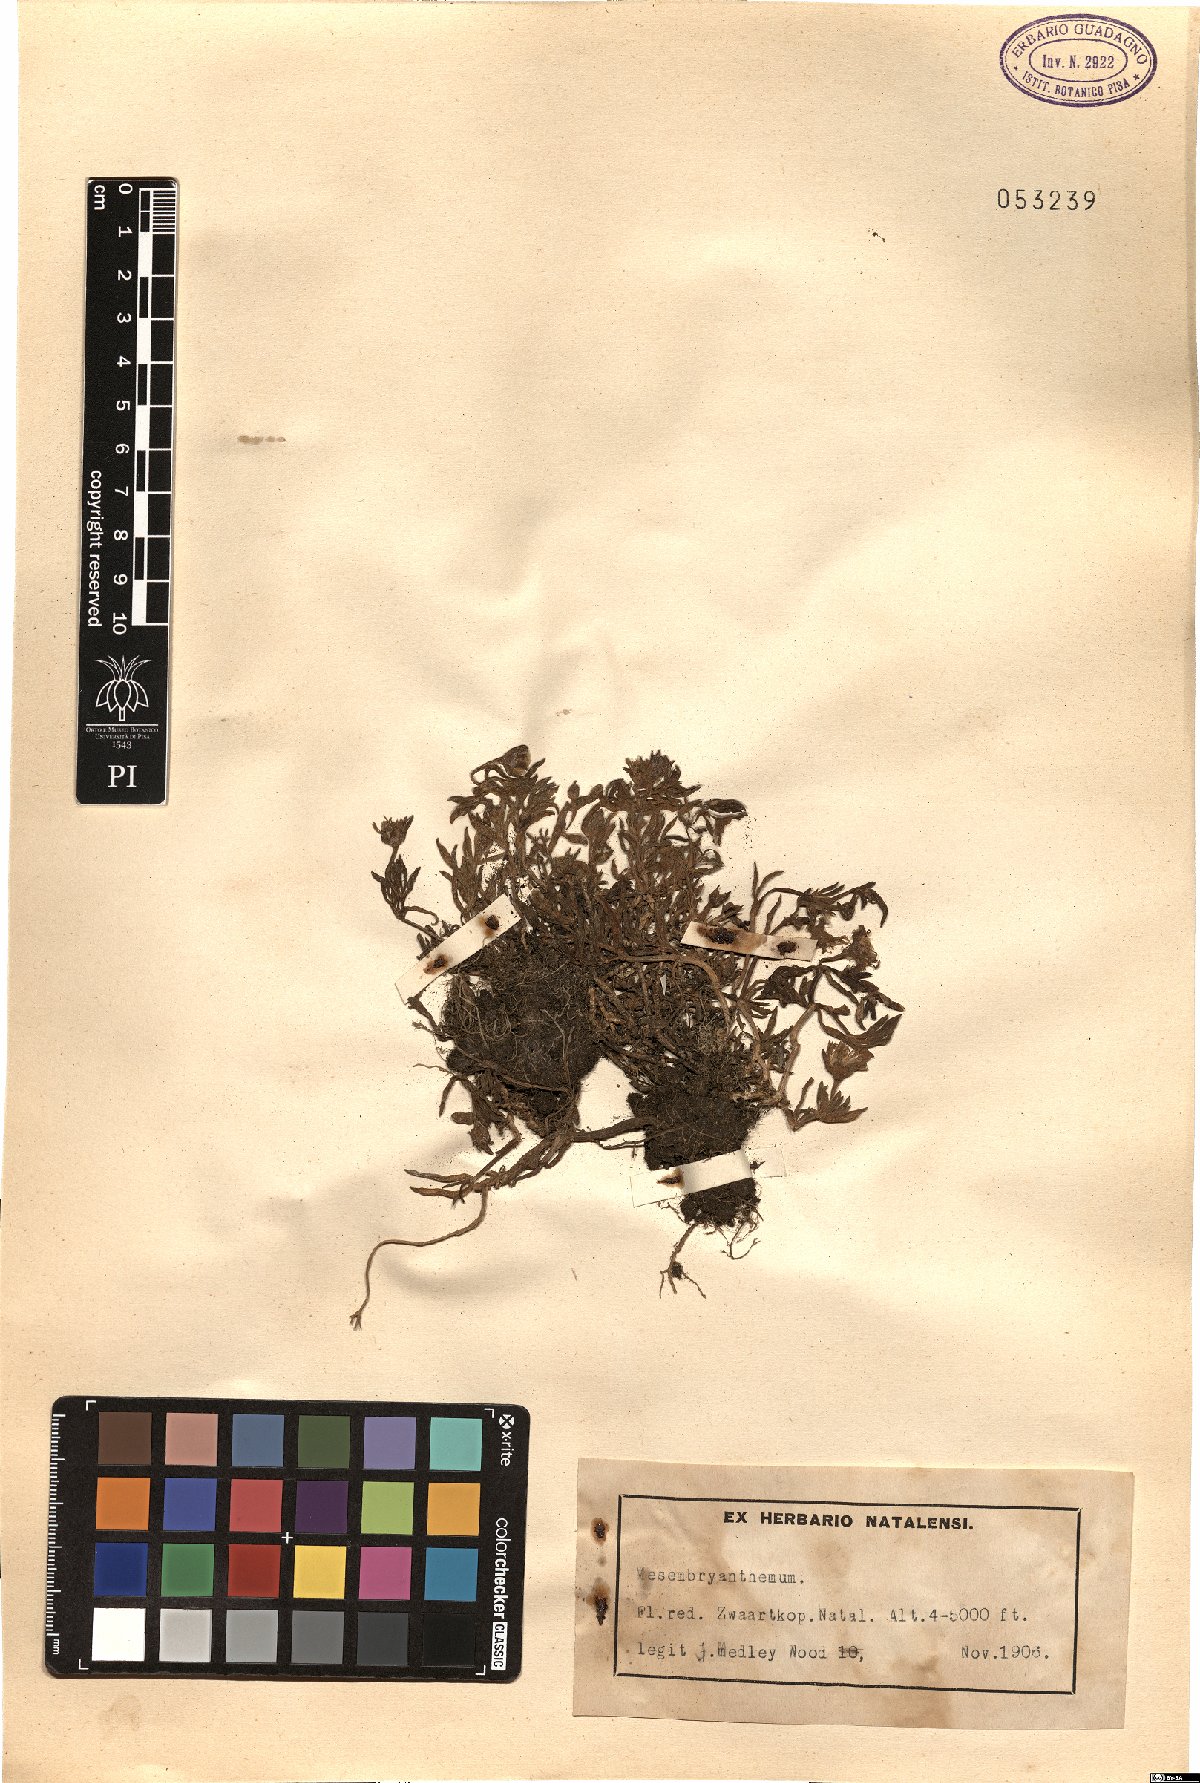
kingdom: Plantae
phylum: Tracheophyta
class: Magnoliopsida
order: Caryophyllales
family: Aizoaceae
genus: Mesembryanthemum
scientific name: Mesembryanthemum
